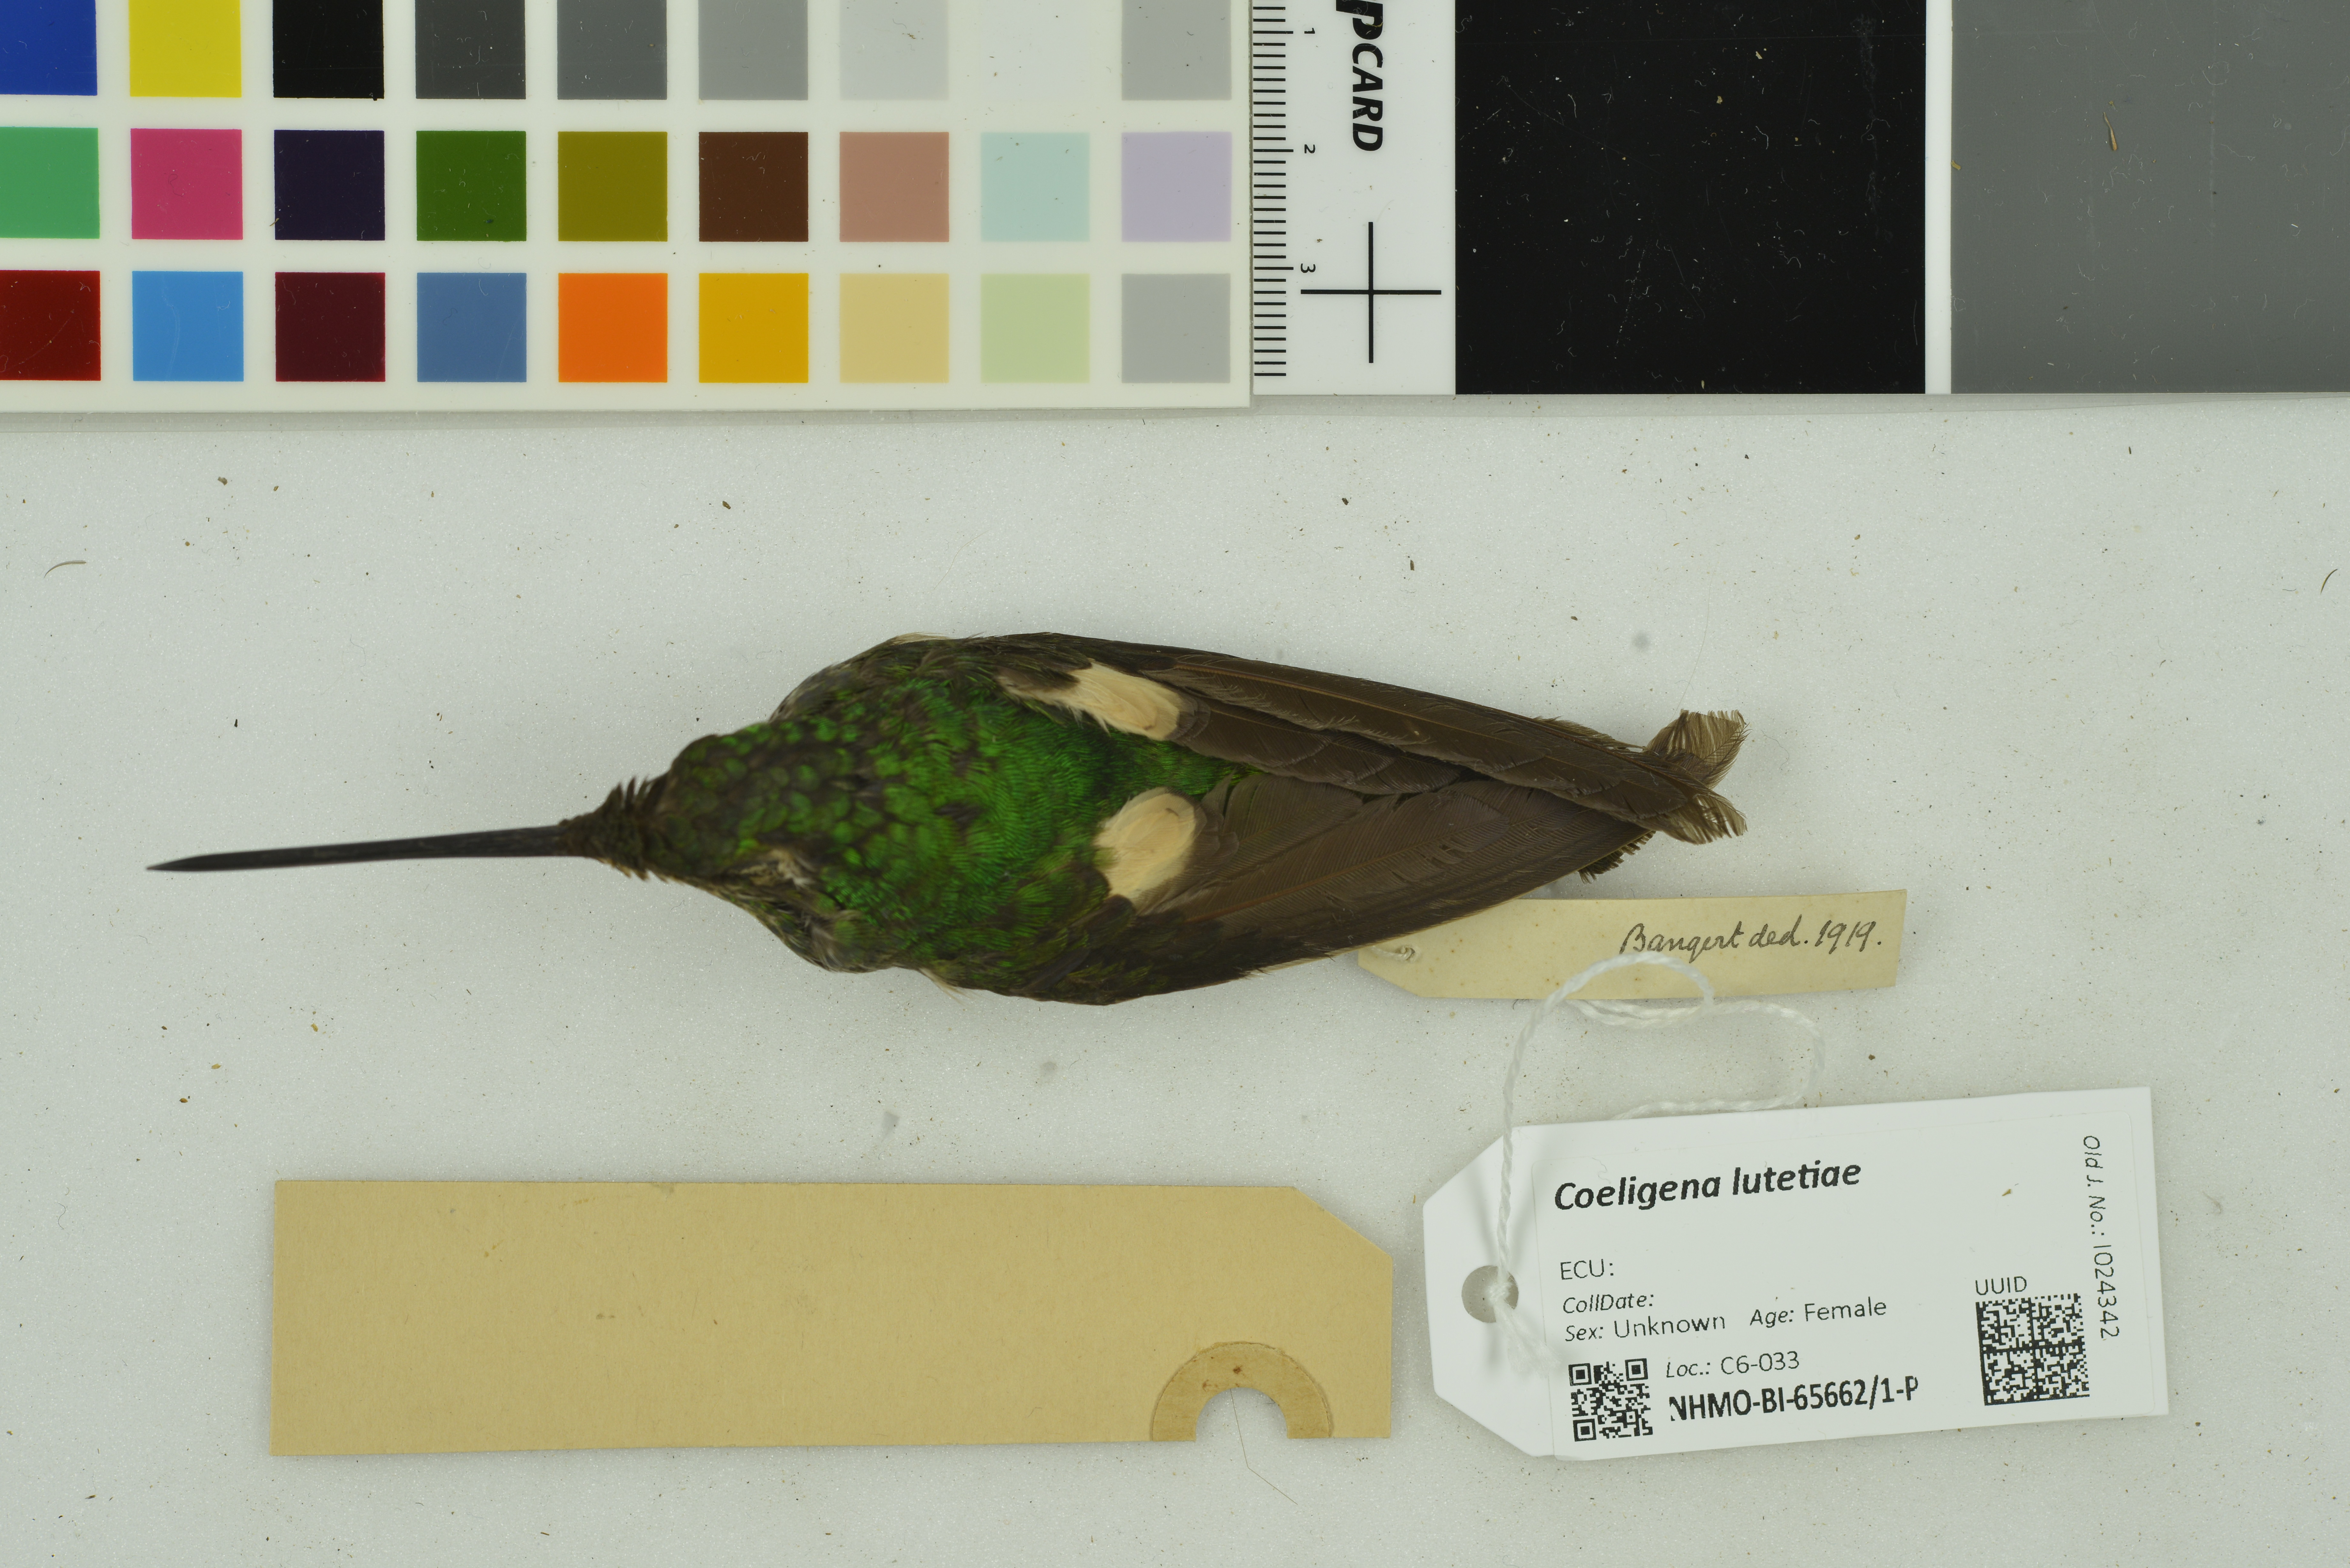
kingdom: Animalia
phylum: Chordata
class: Aves
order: Apodiformes
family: Trochilidae
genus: Coeligena
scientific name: Coeligena lutetiae
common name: Buff-winged starfrontlet
